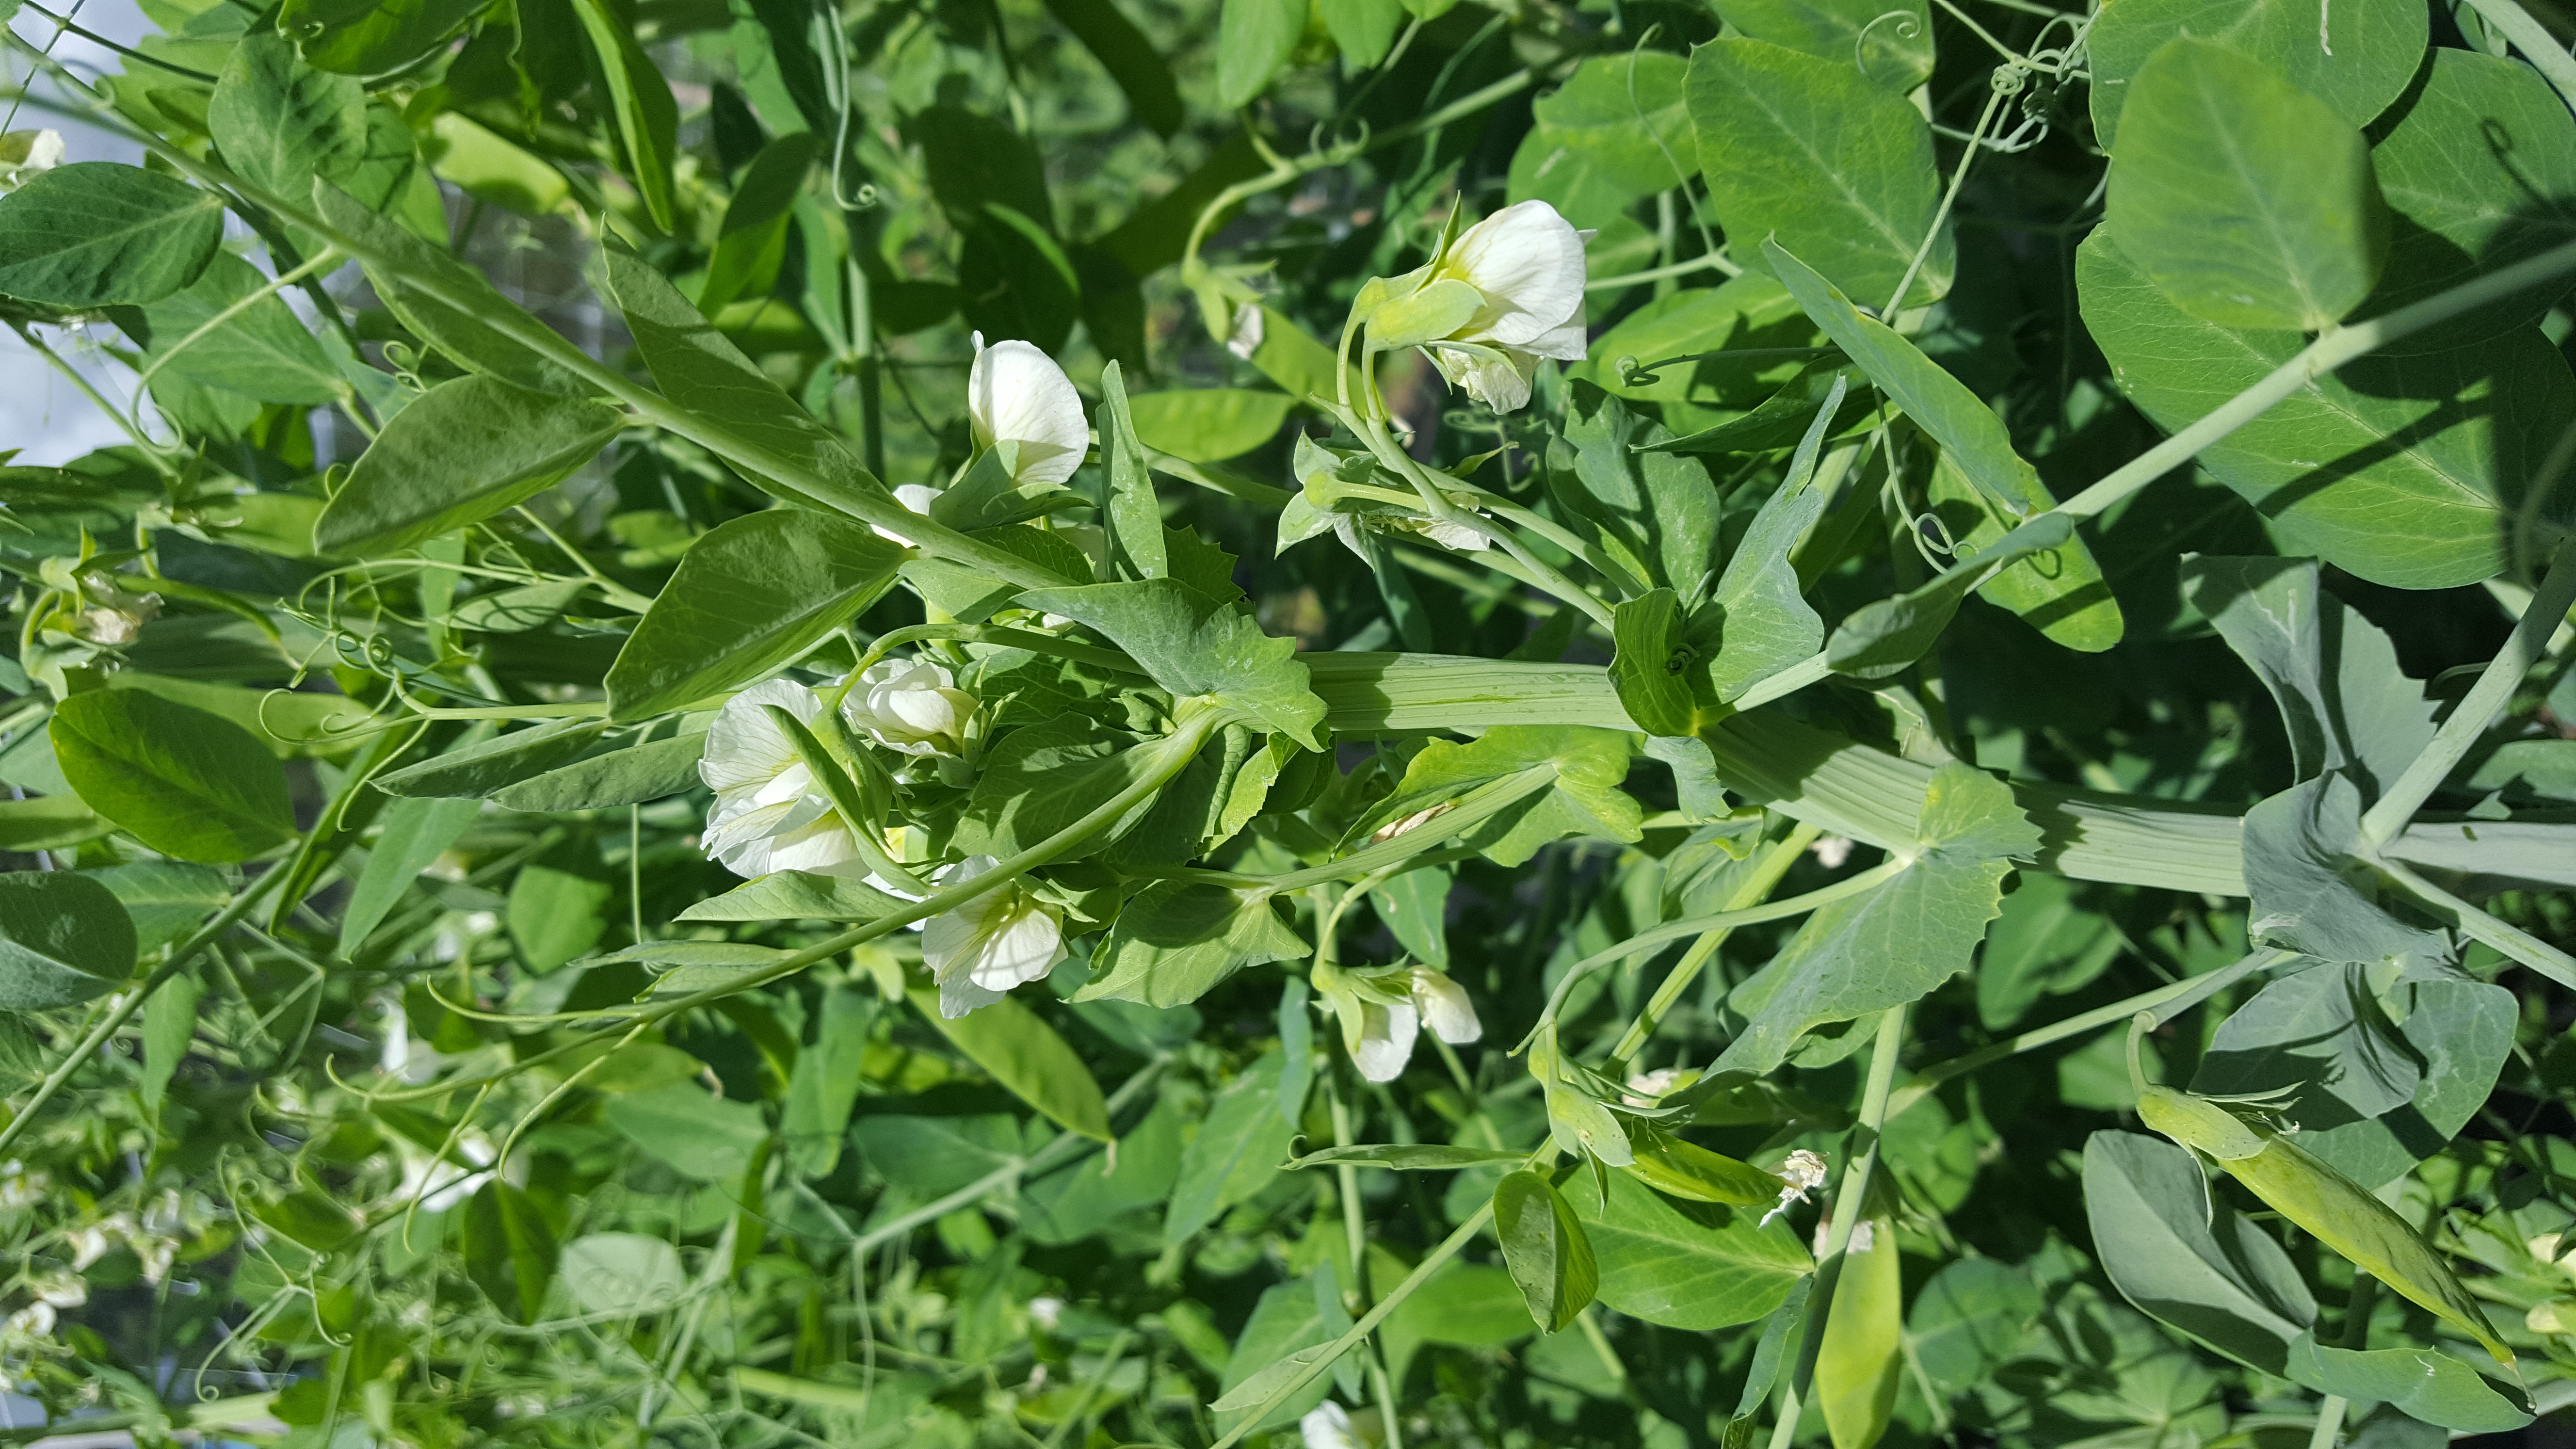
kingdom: Plantae
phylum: Tracheophyta
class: Magnoliopsida
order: Fabales
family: Fabaceae
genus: Lathyrus
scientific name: Lathyrus oleraceus
